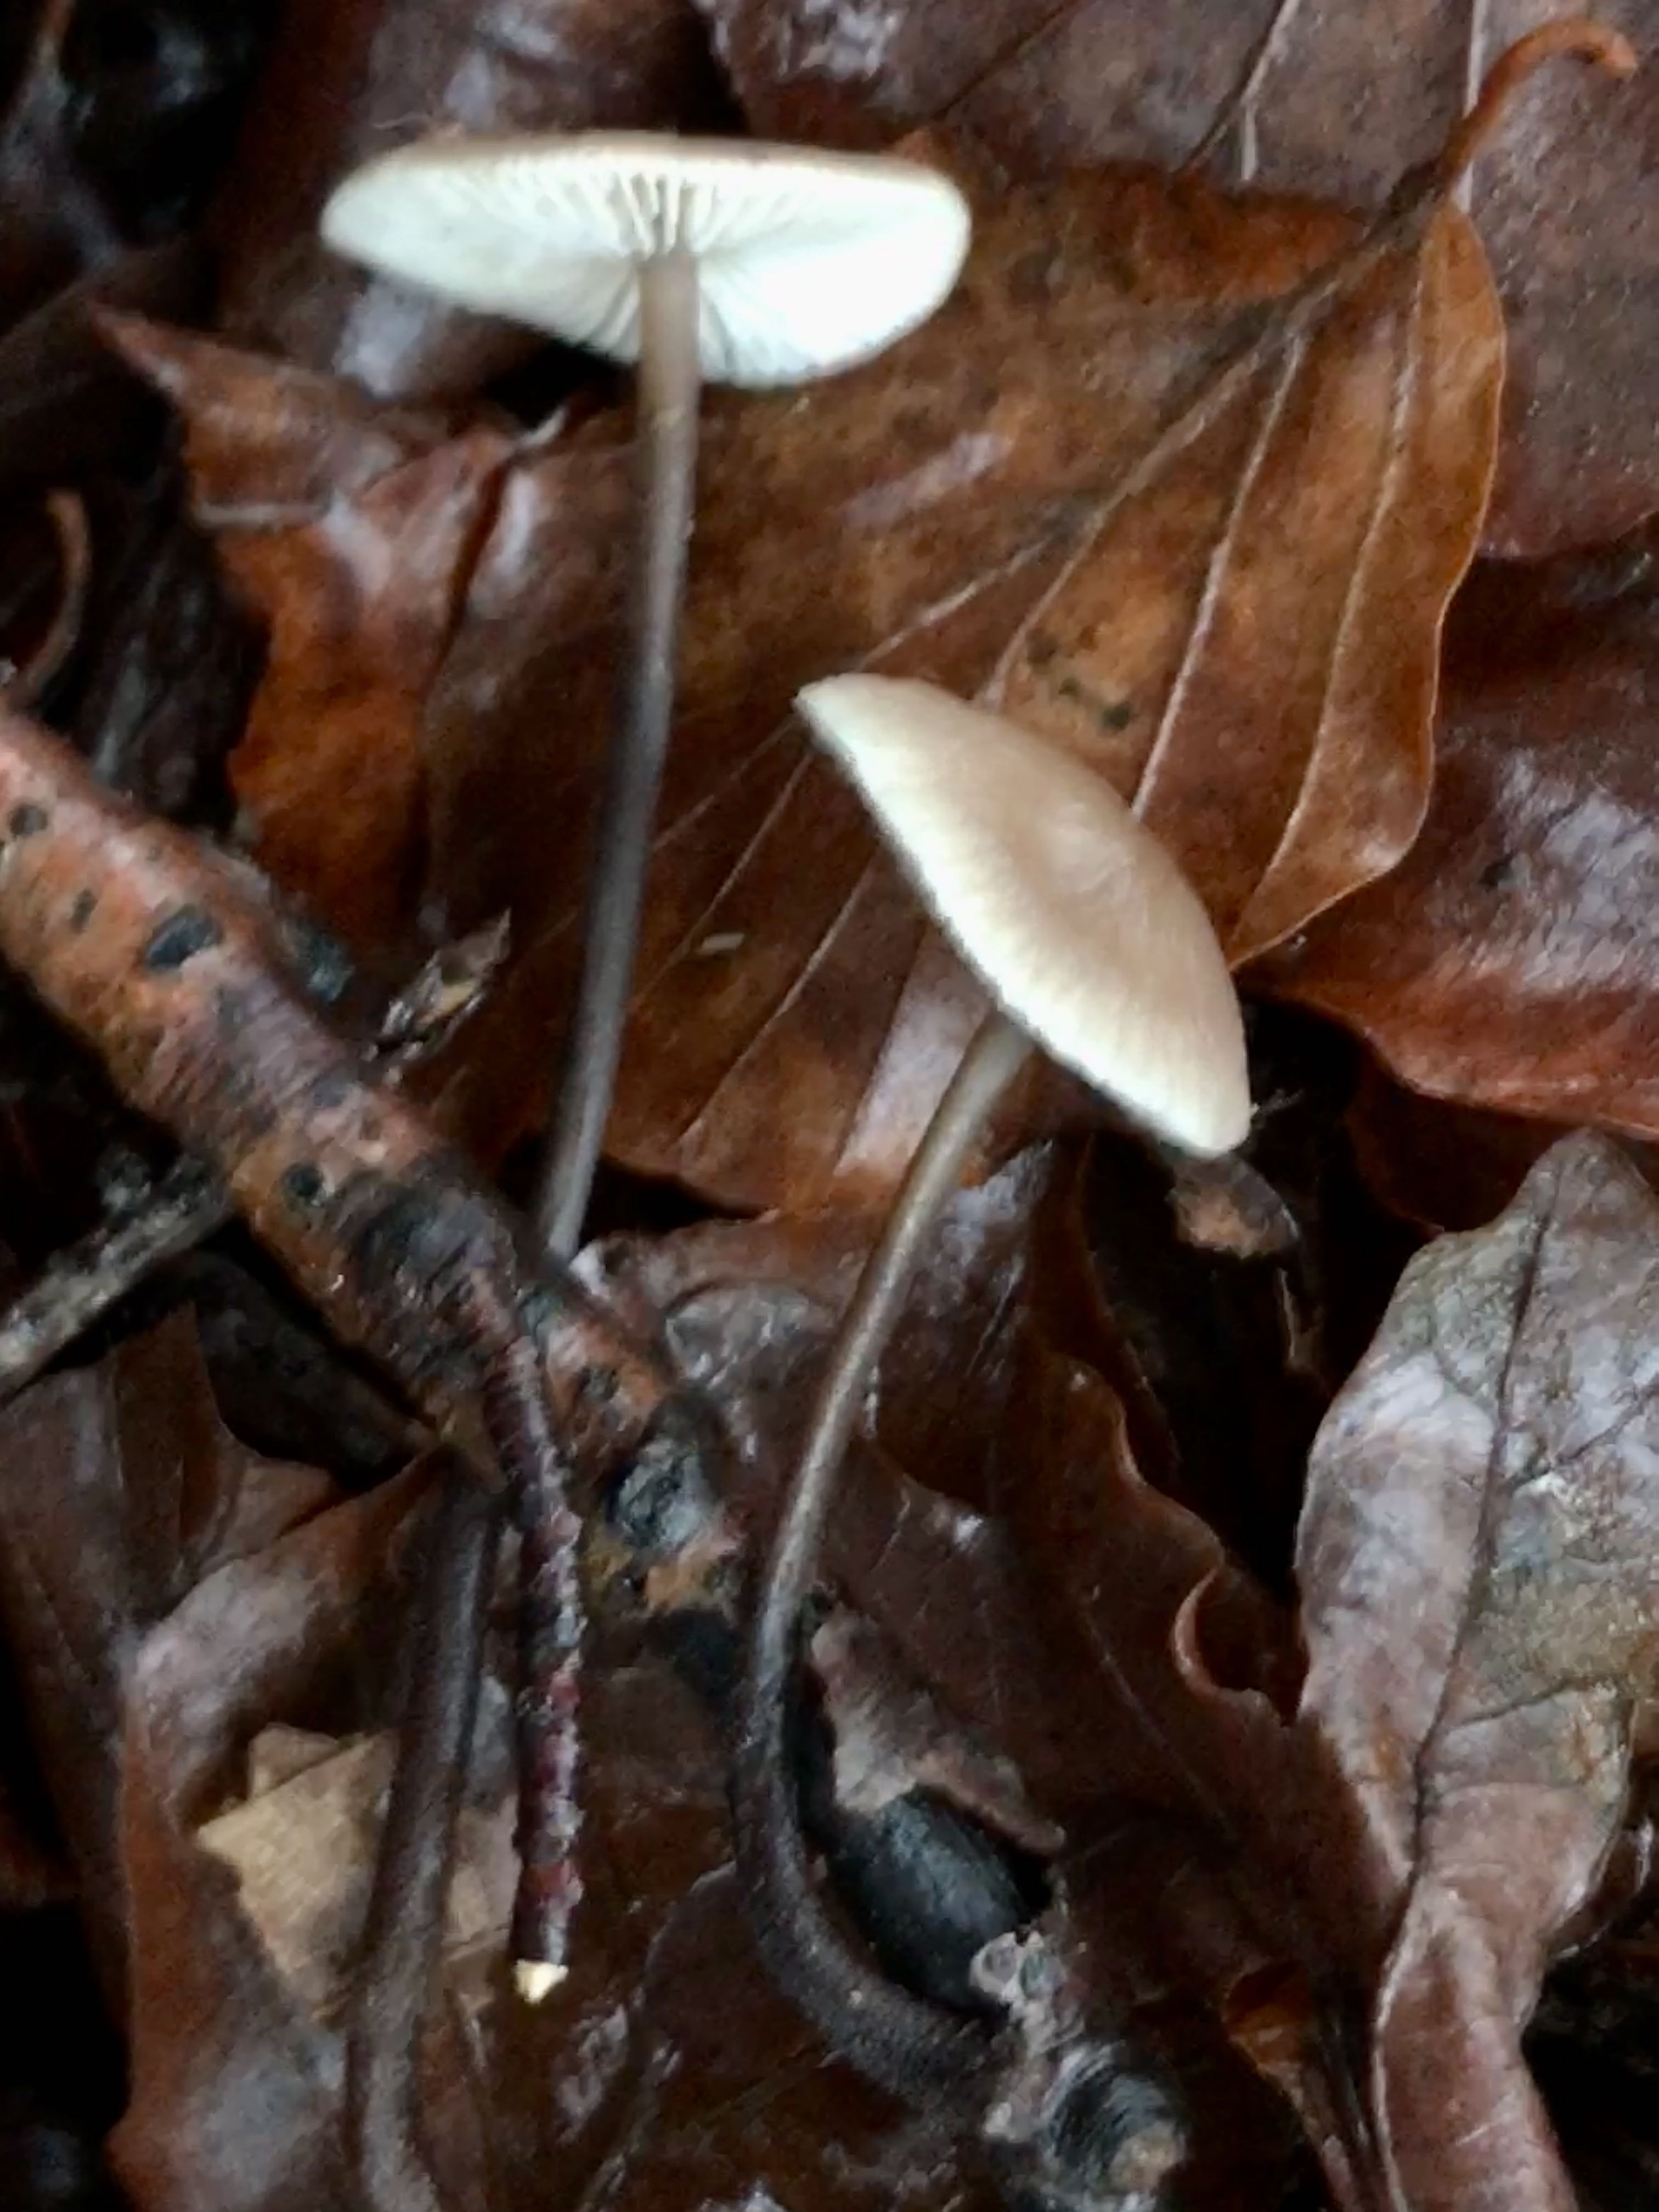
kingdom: Fungi
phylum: Basidiomycota
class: Agaricomycetes
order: Agaricales
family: Omphalotaceae
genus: Mycetinis
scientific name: Mycetinis alliaceus
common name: stor løghat
